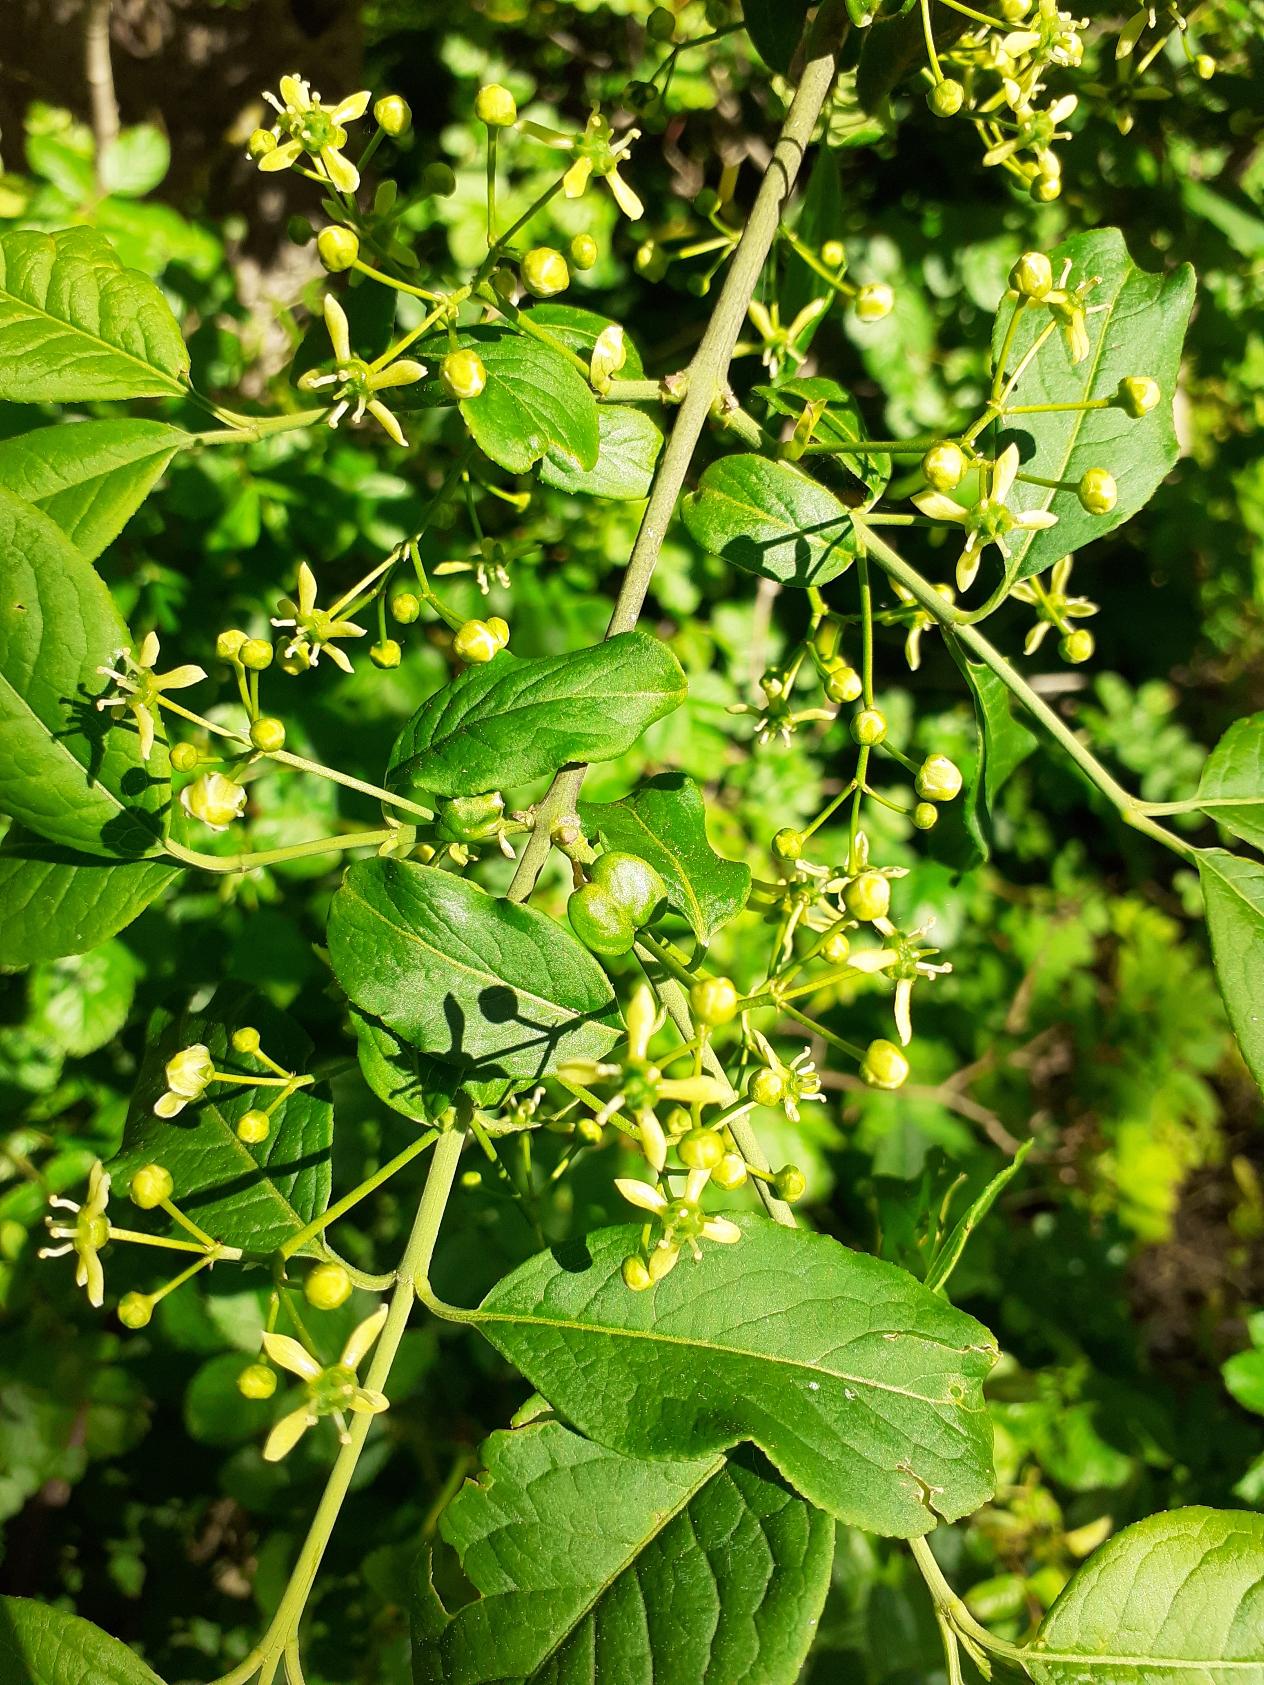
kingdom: Plantae
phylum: Tracheophyta
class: Magnoliopsida
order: Celastrales
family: Celastraceae
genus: Euonymus
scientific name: Euonymus europaeus
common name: Benved
